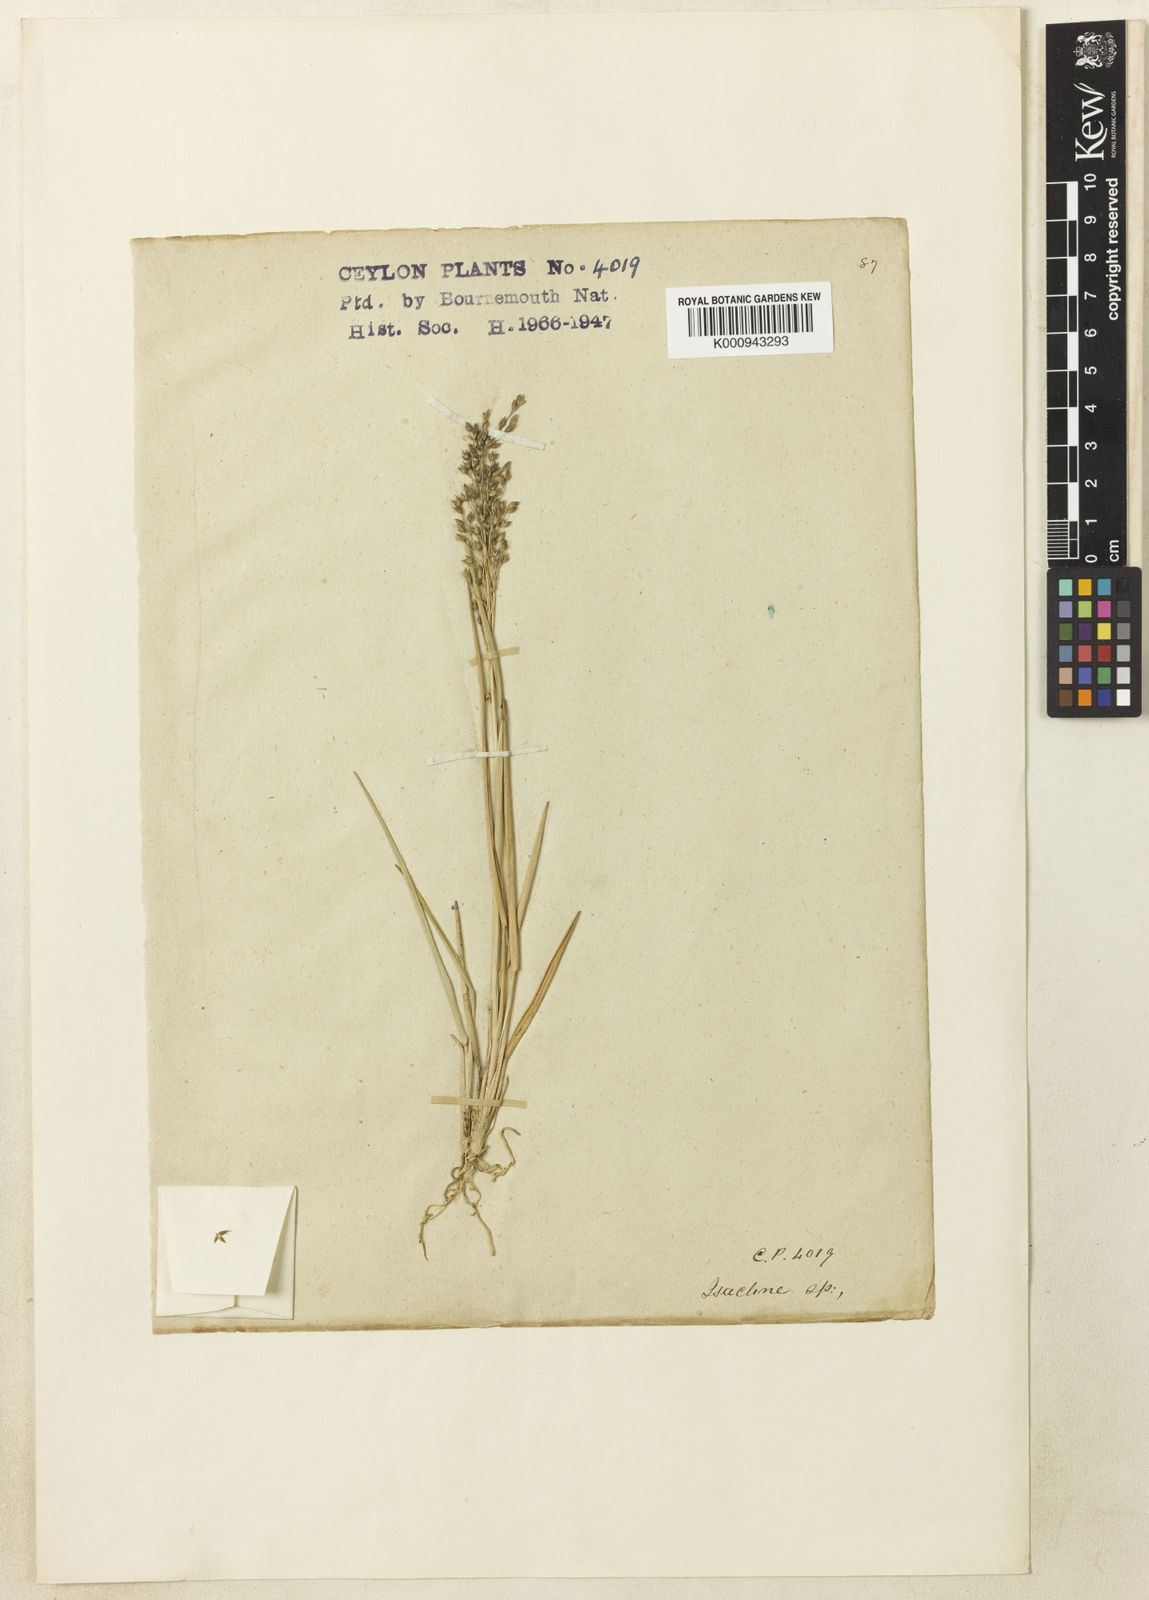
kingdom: Plantae
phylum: Tracheophyta
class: Liliopsida
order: Poales
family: Poaceae
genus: Arundinella
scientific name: Arundinella thwaitesii
